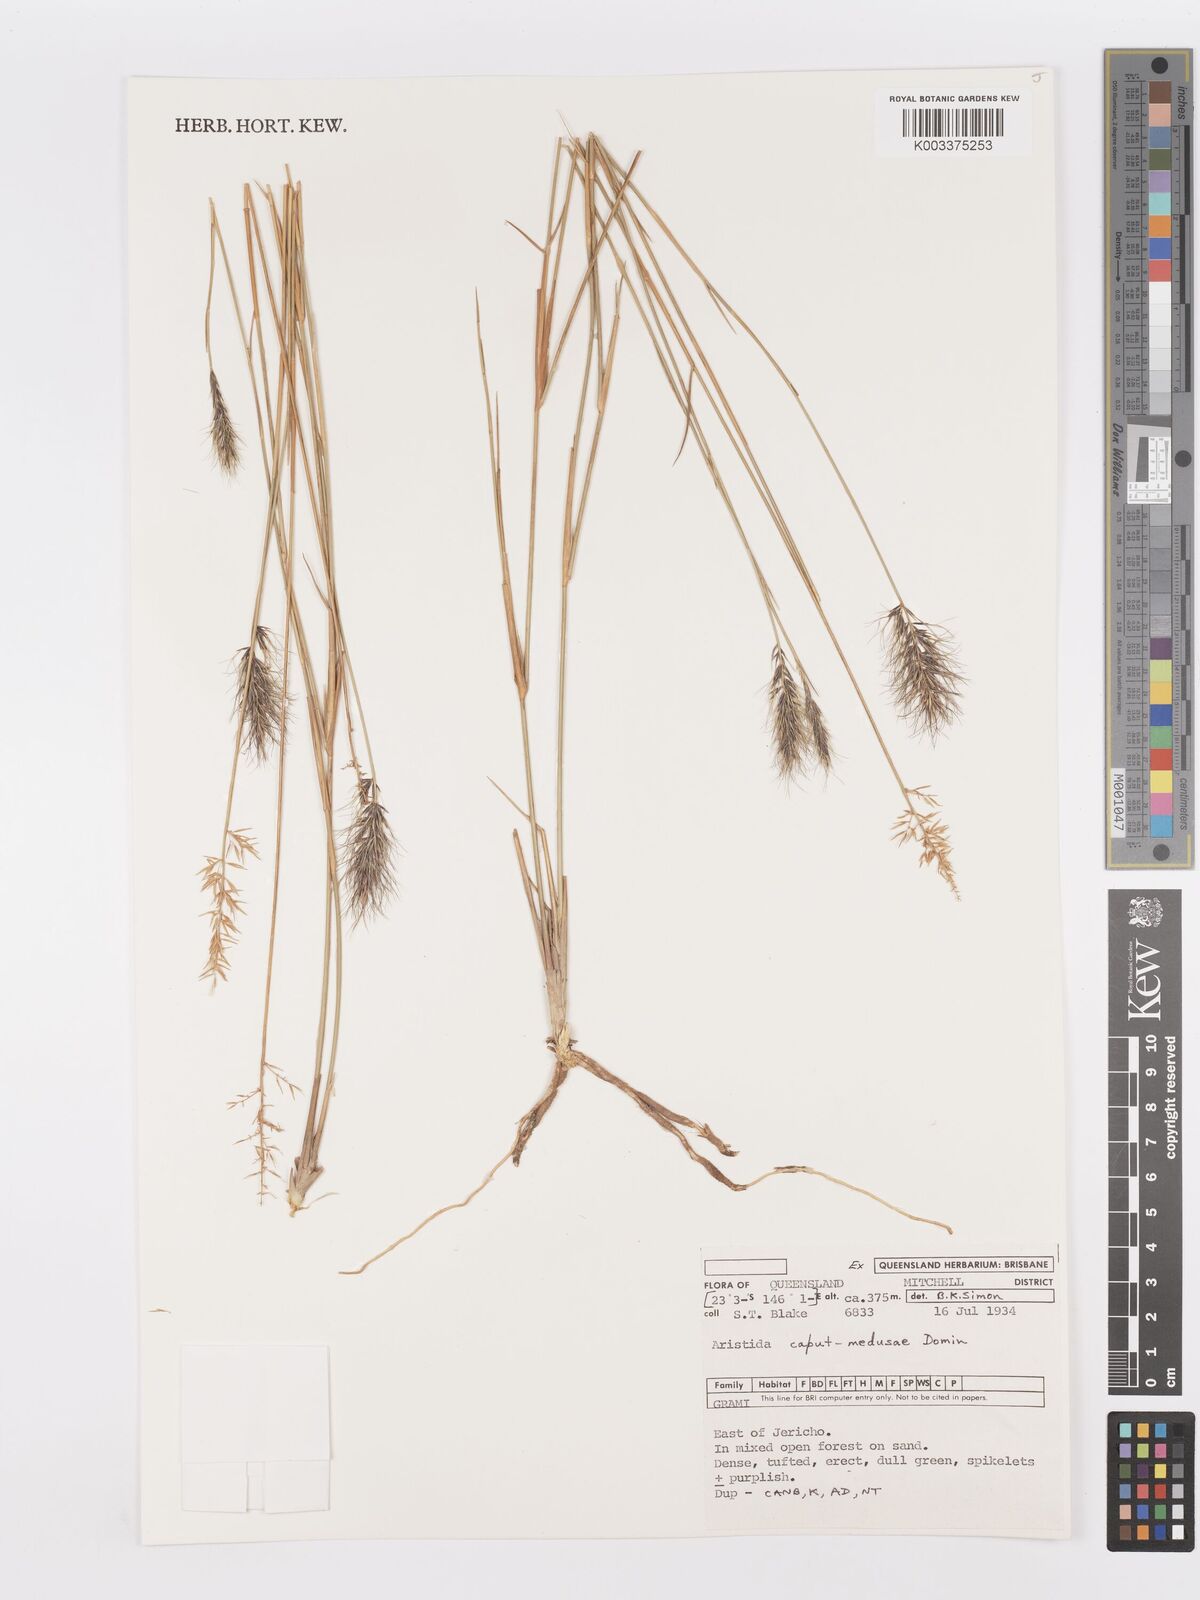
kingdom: Plantae
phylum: Tracheophyta
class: Liliopsida
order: Poales
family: Poaceae
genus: Aristida
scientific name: Aristida caput-medusae
